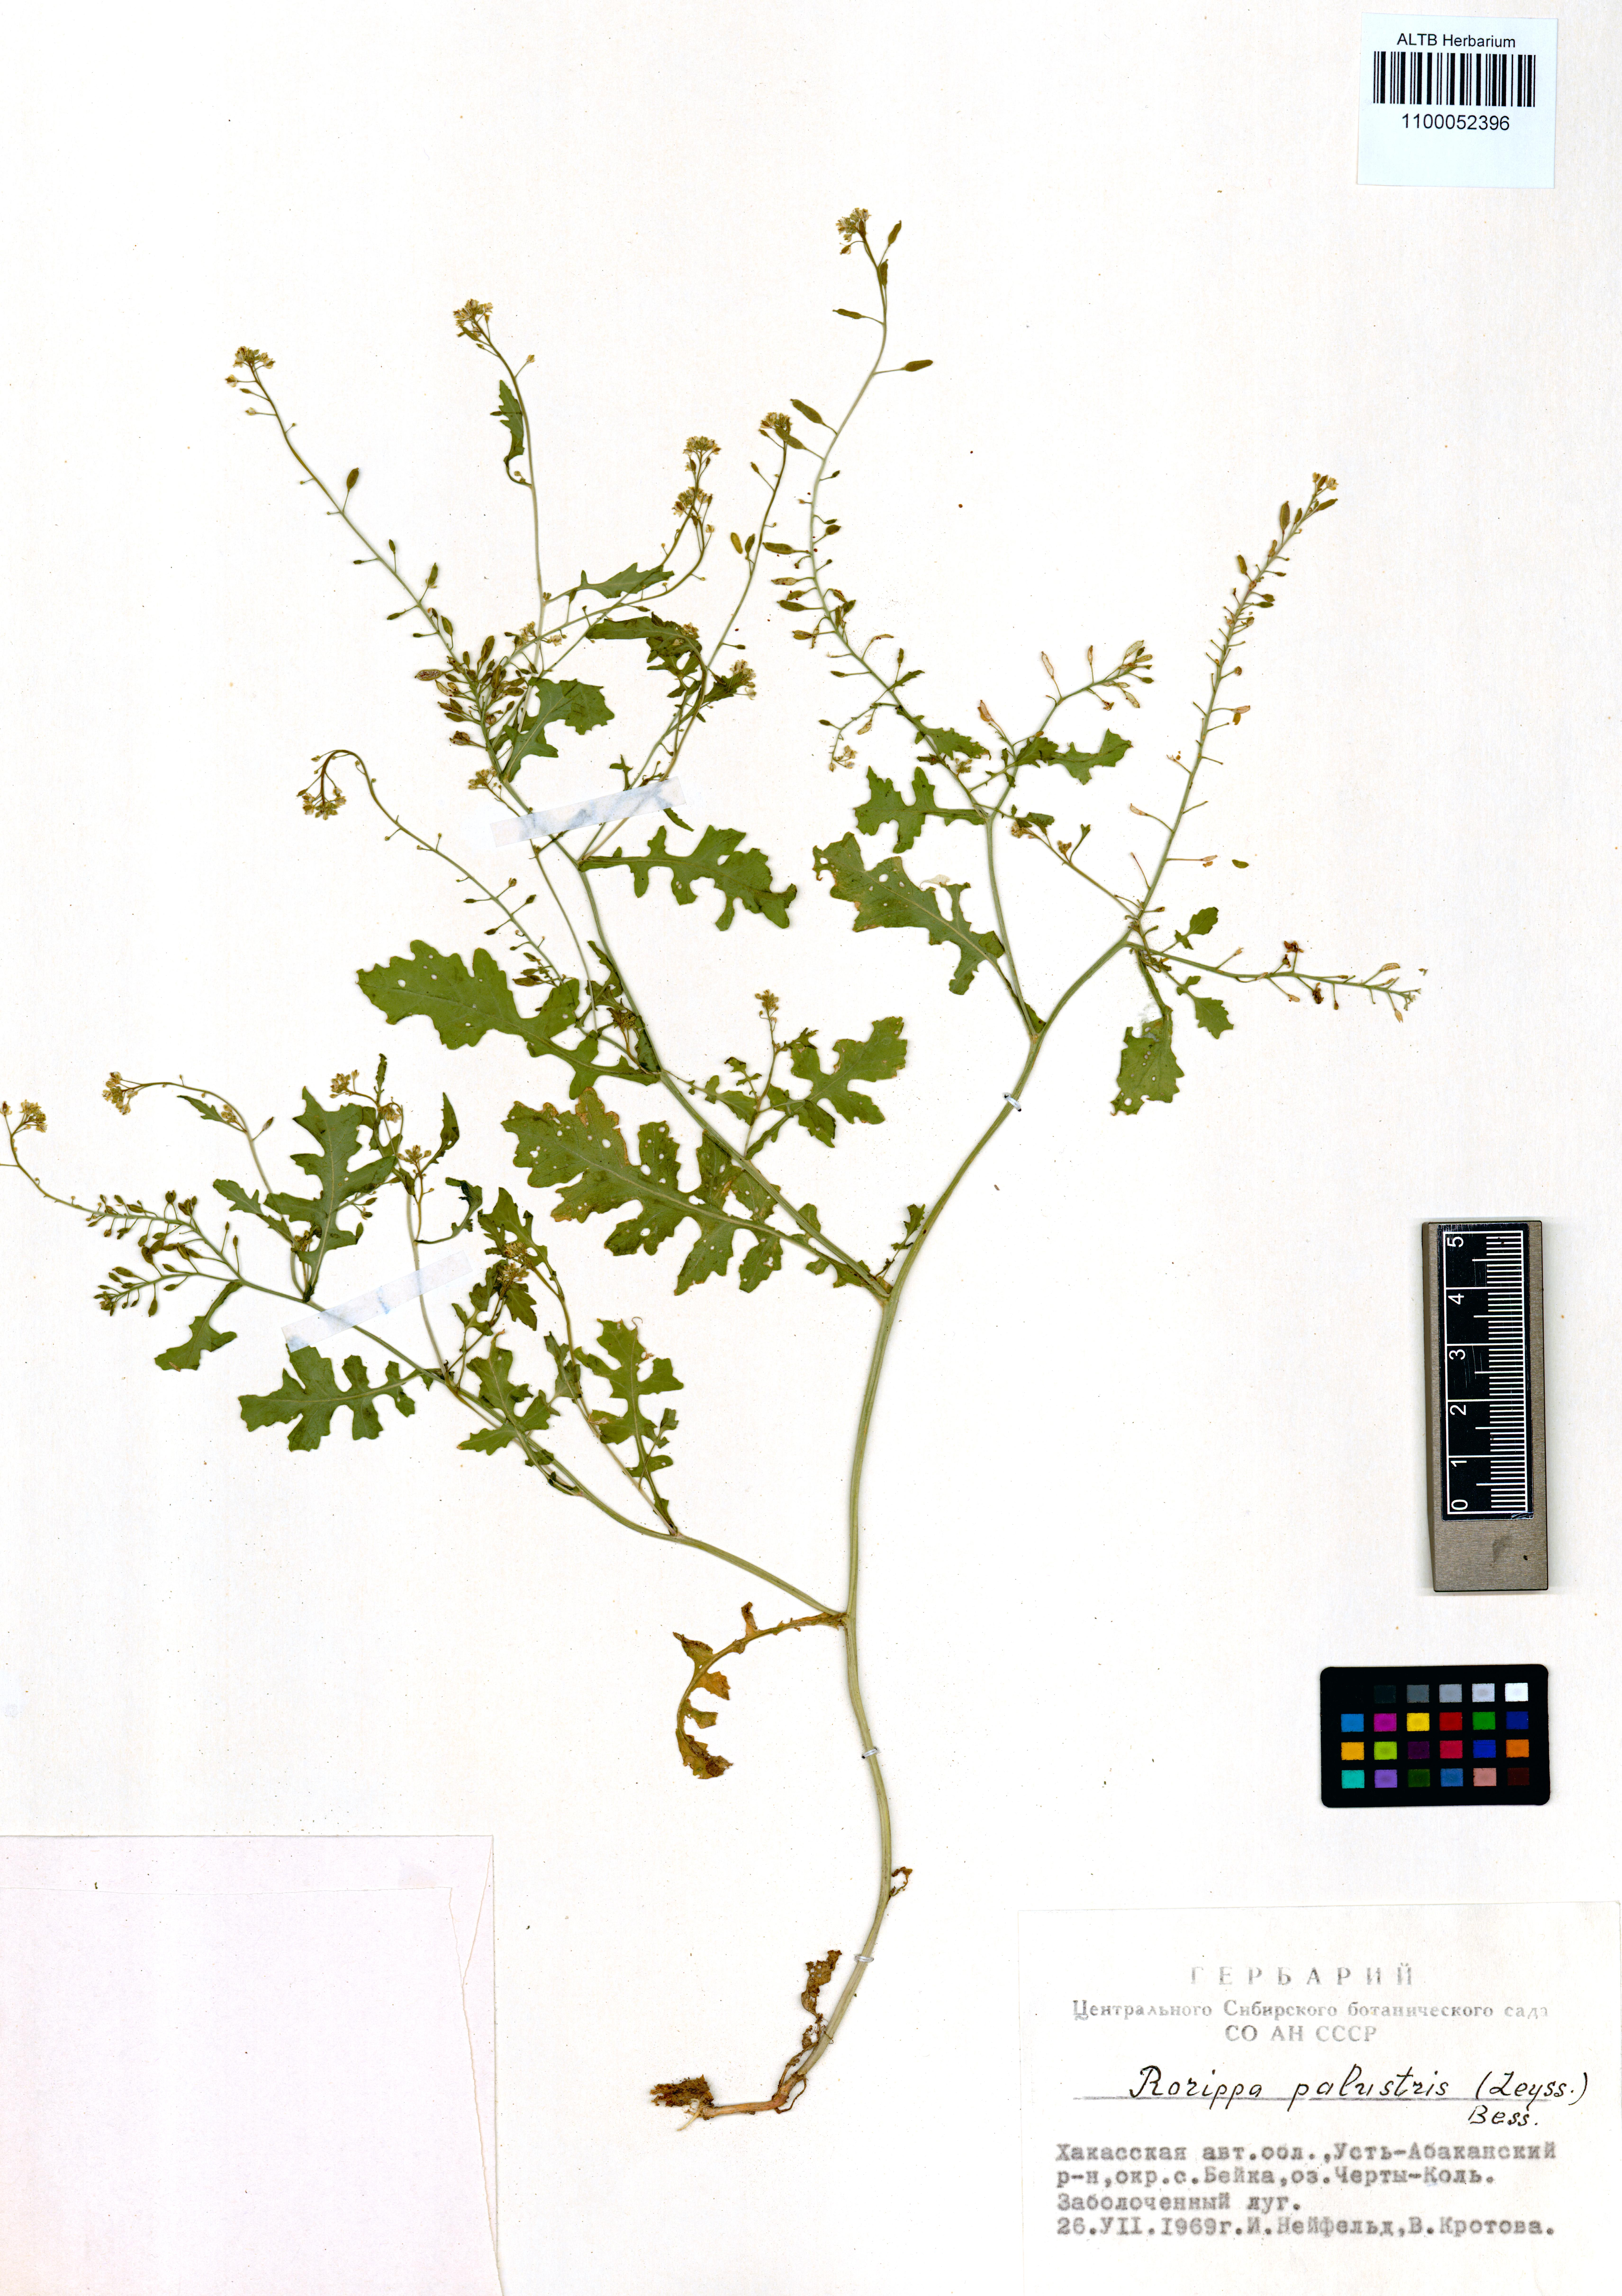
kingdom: Plantae
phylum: Tracheophyta
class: Magnoliopsida
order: Brassicales
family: Brassicaceae
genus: Rorippa
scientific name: Rorippa palustris
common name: Marsh yellow-cress
